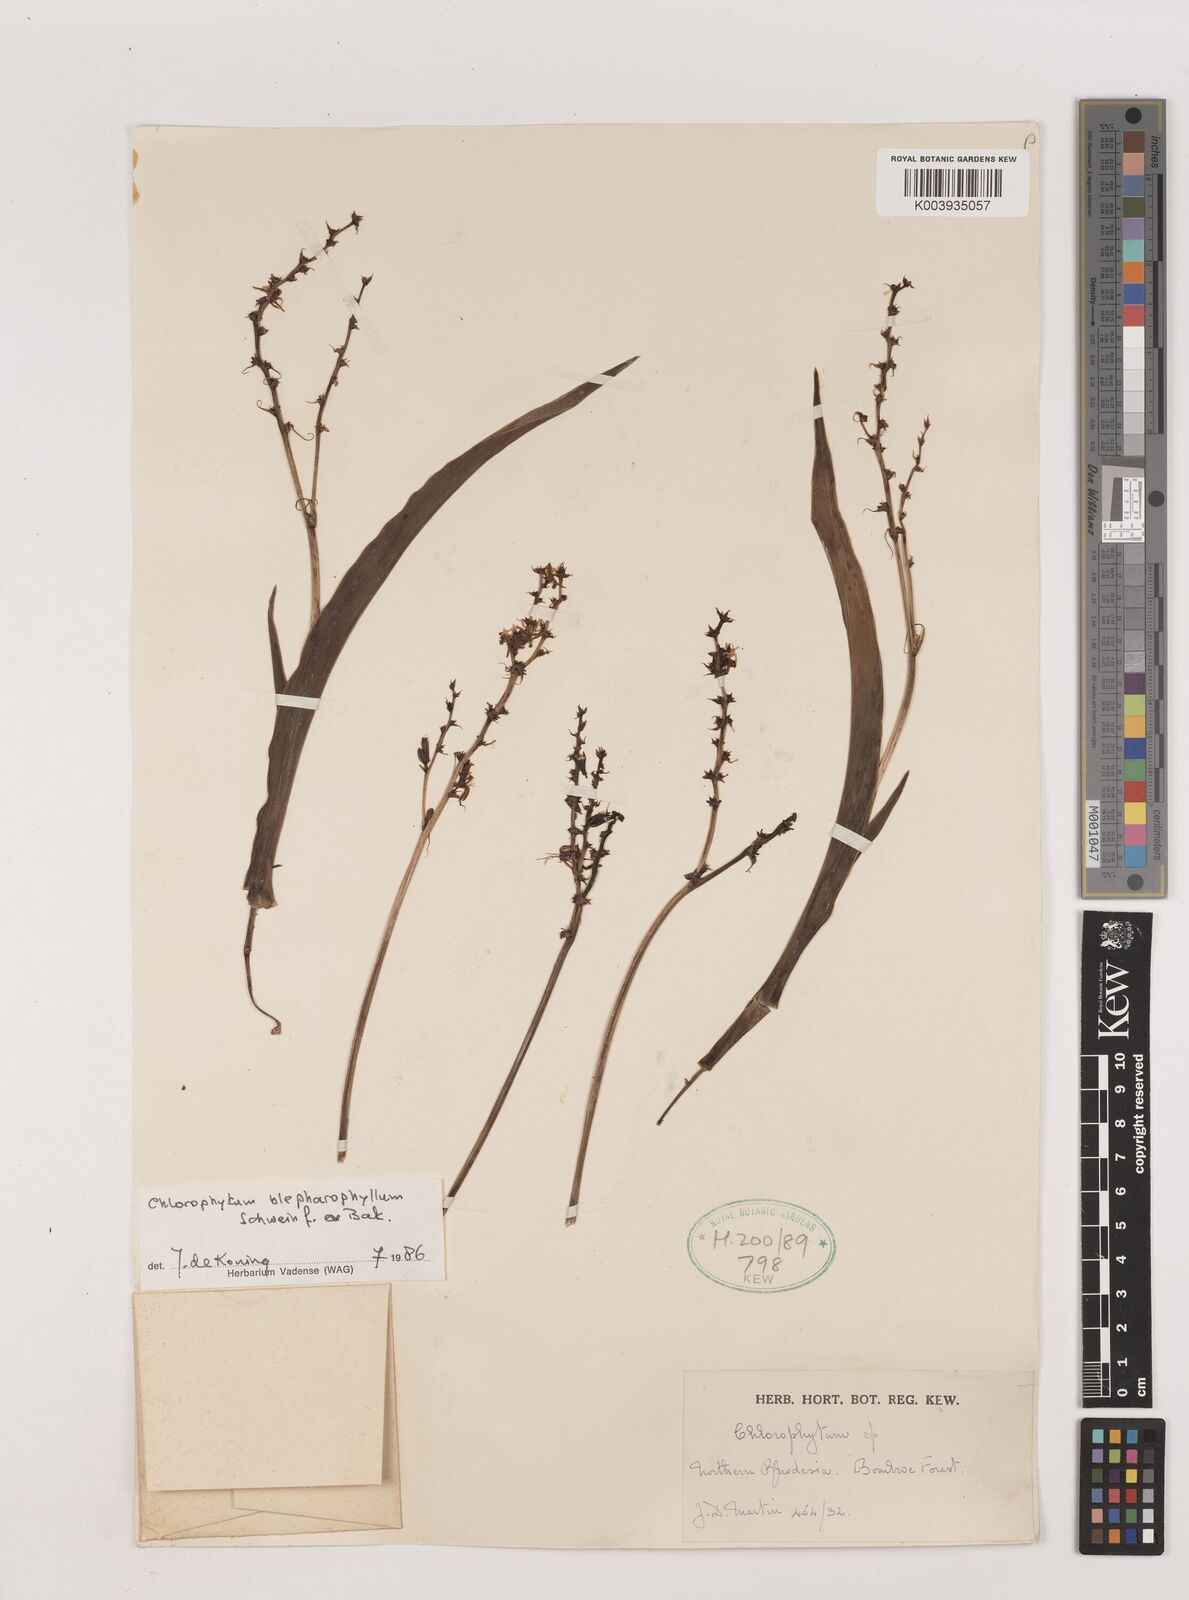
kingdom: Plantae
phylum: Tracheophyta
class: Liliopsida
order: Asparagales
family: Asparagaceae
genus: Chlorophytum
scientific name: Chlorophytum blepharophyllum
